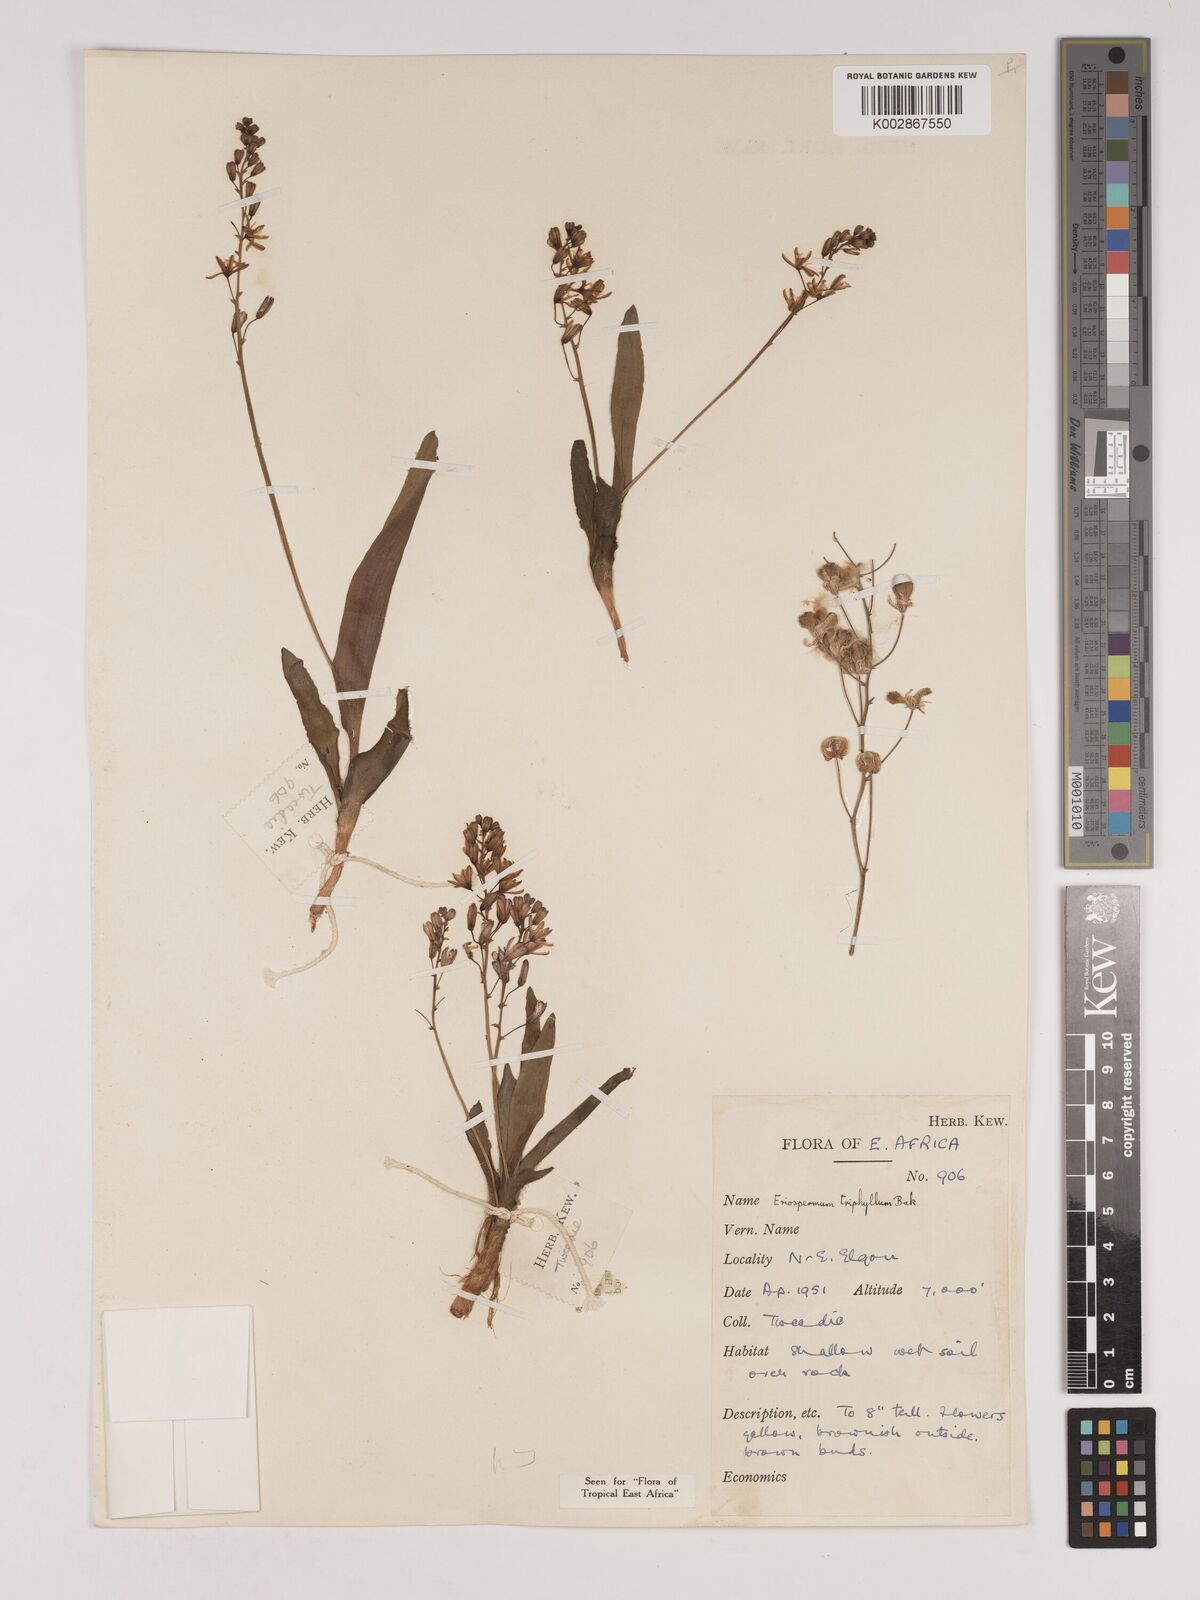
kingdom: Plantae
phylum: Tracheophyta
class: Liliopsida
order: Asparagales
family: Asparagaceae
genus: Eriospermum
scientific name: Eriospermum triphyllum
